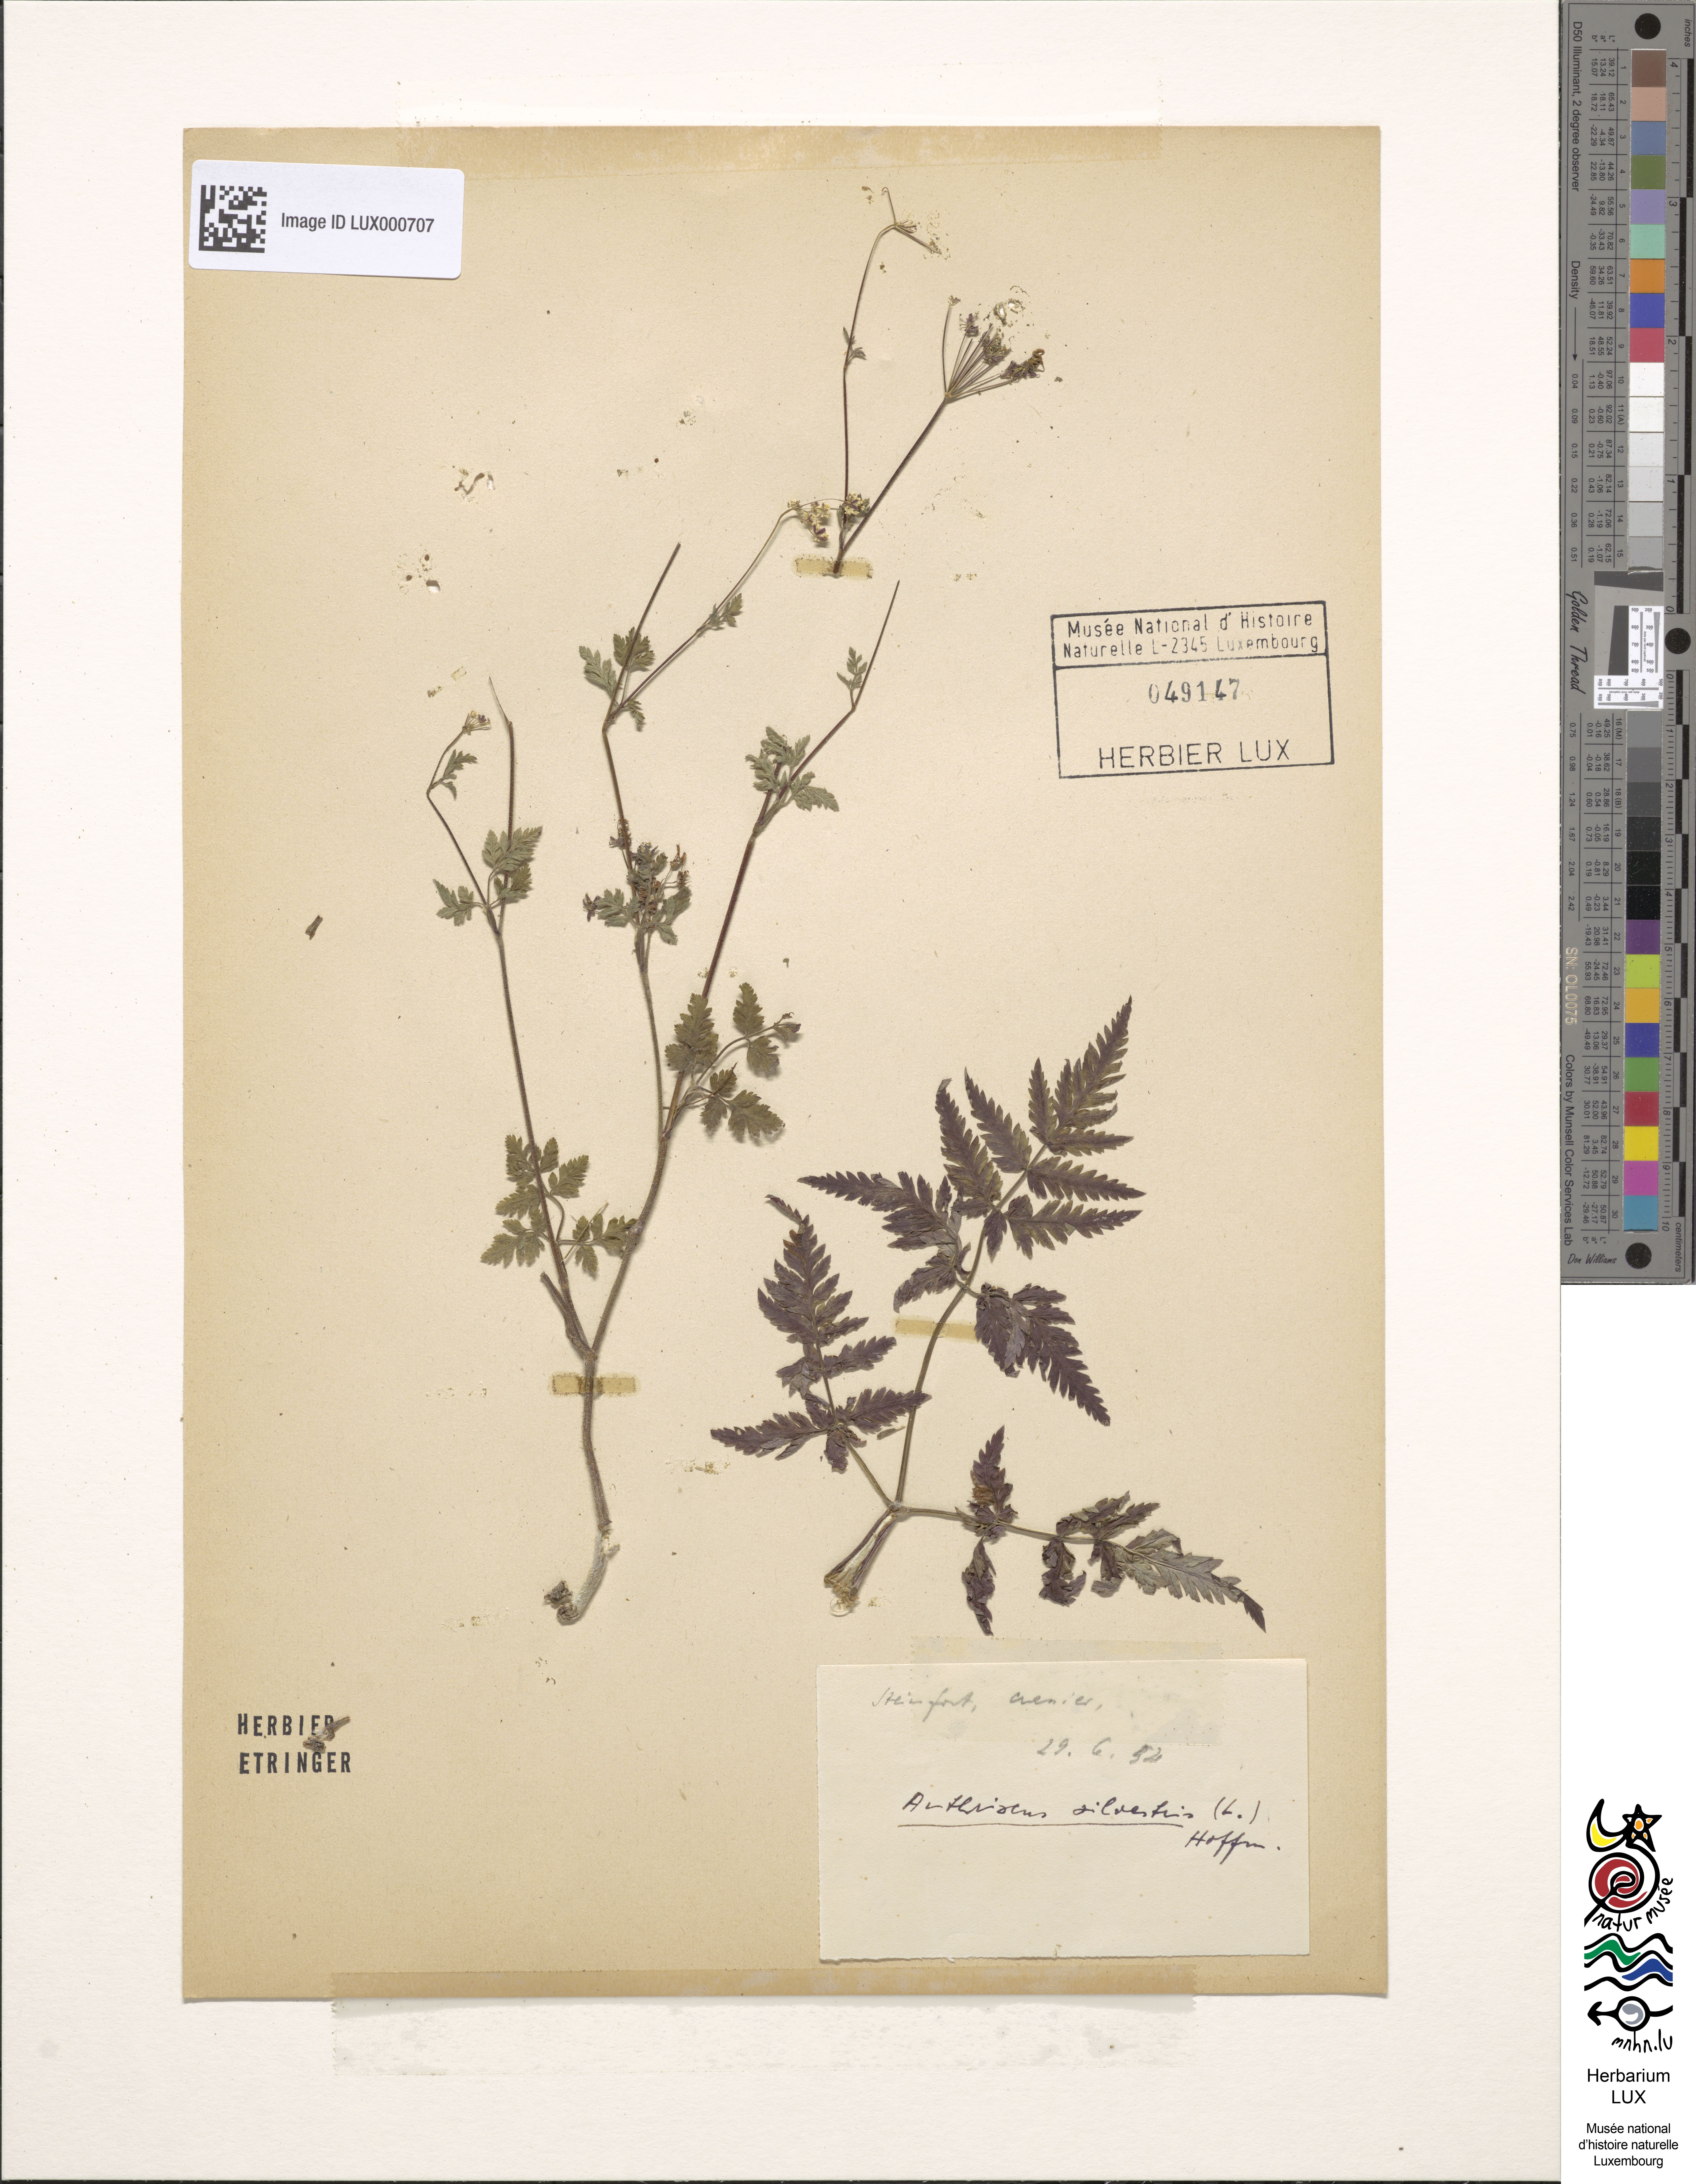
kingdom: Plantae
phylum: Tracheophyta
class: Magnoliopsida
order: Apiales
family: Apiaceae
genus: Anthriscus
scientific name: Anthriscus sylvestris
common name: Cow parsley
